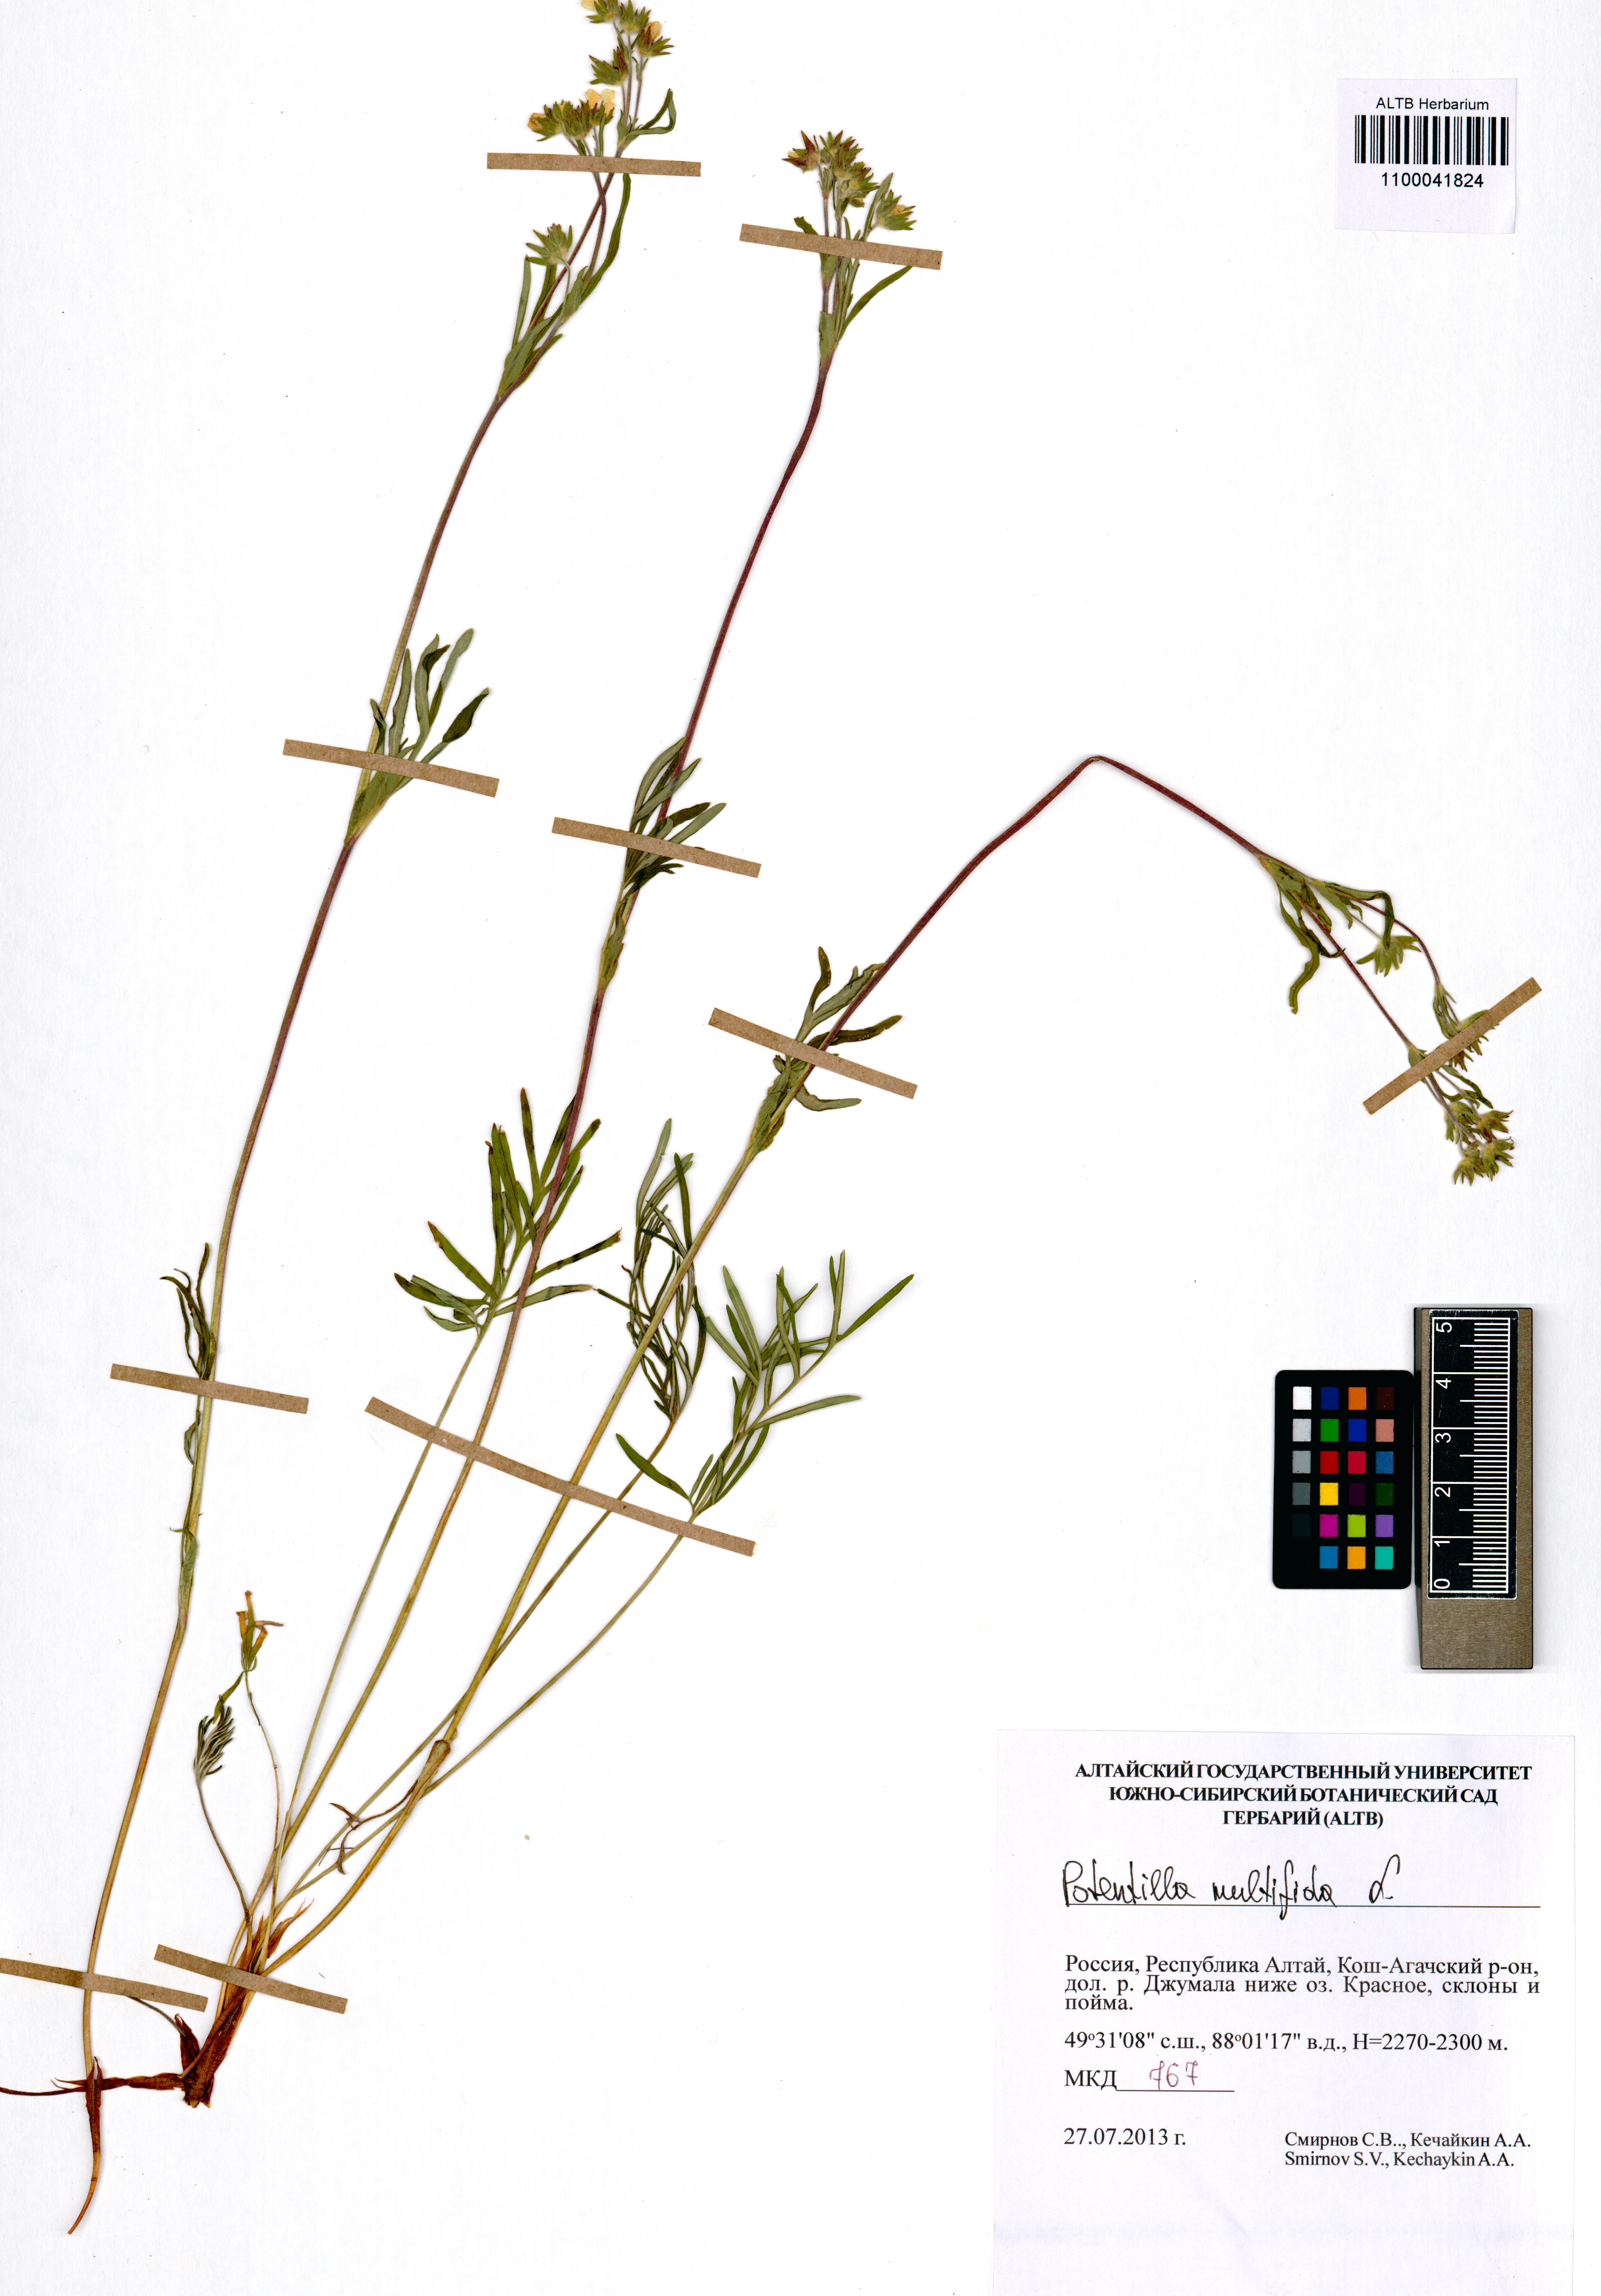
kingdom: Plantae
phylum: Tracheophyta
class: Magnoliopsida
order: Rosales
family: Rosaceae
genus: Potentilla
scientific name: Potentilla multifida
